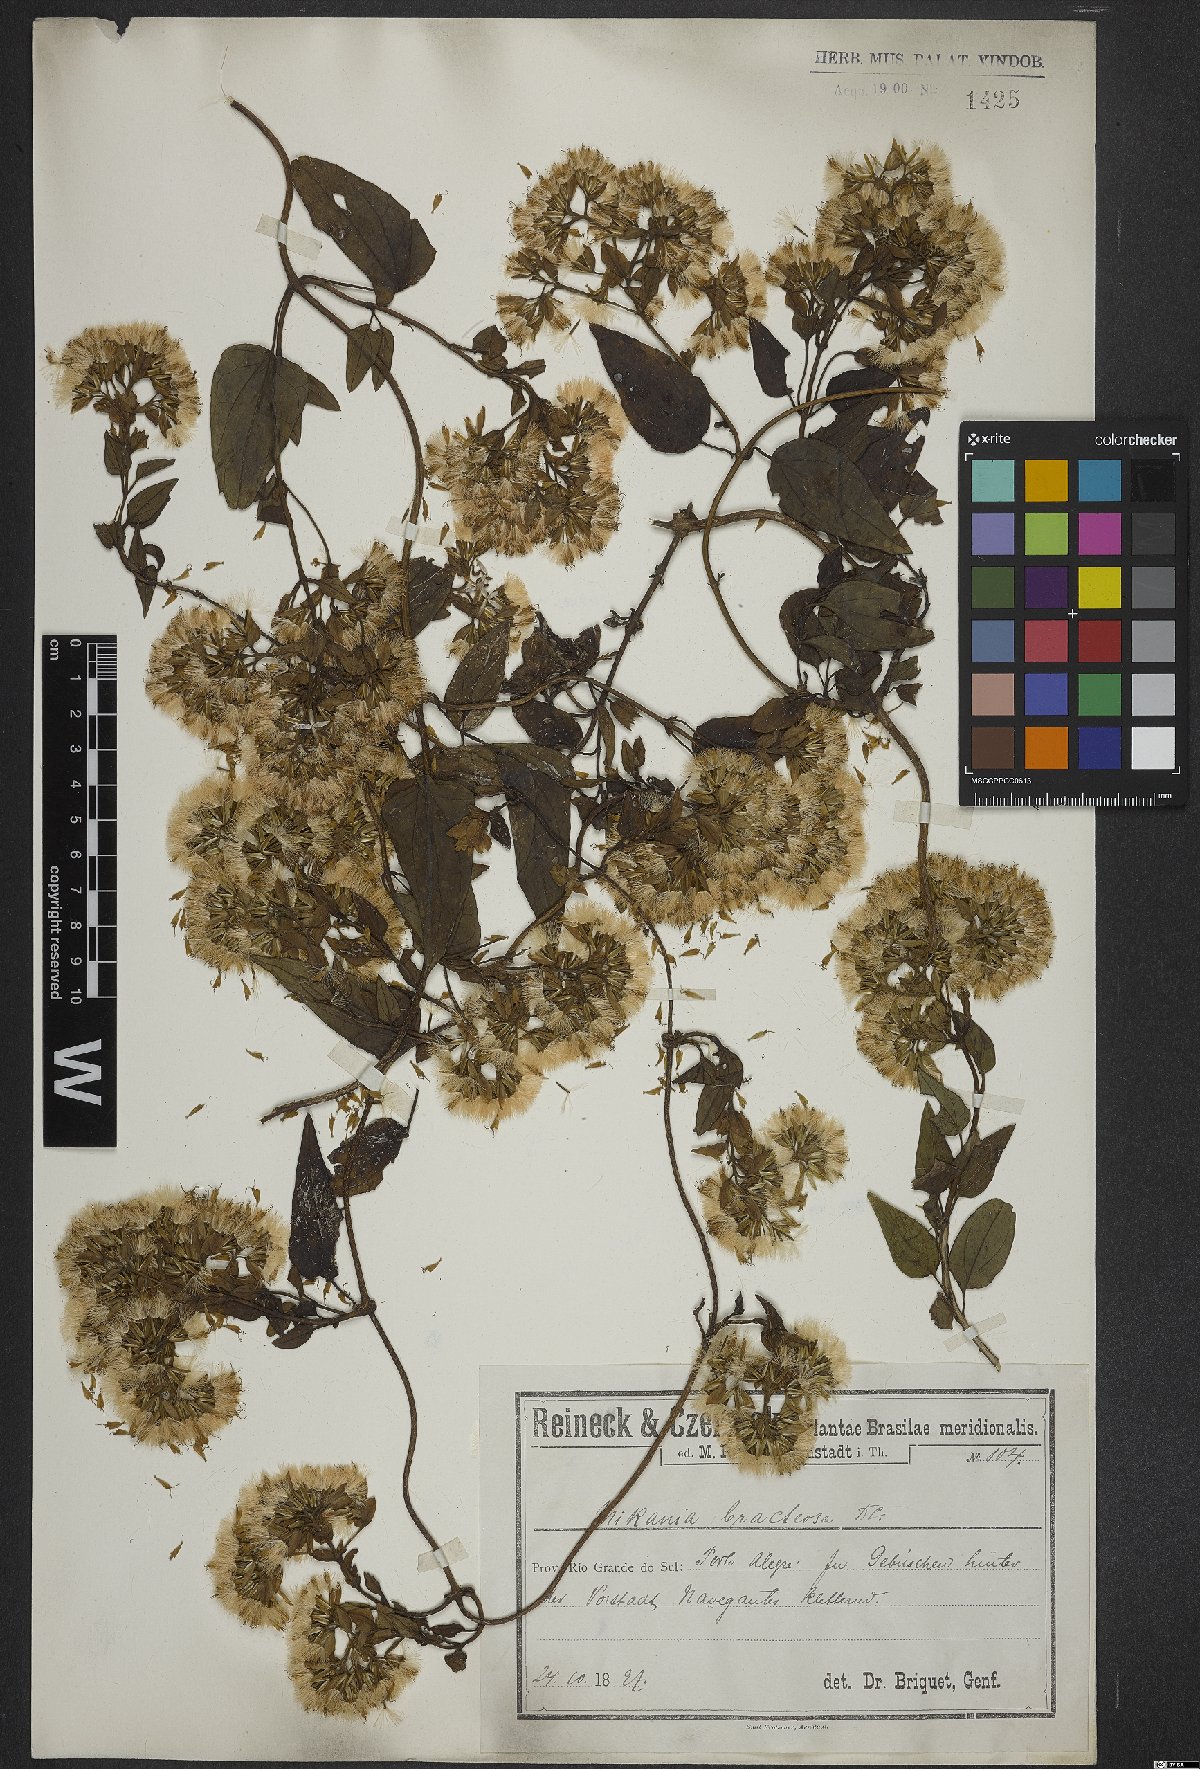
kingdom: Plantae
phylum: Tracheophyta
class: Magnoliopsida
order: Asterales
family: Asteraceae
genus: Mikania
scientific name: Mikania involucrata
